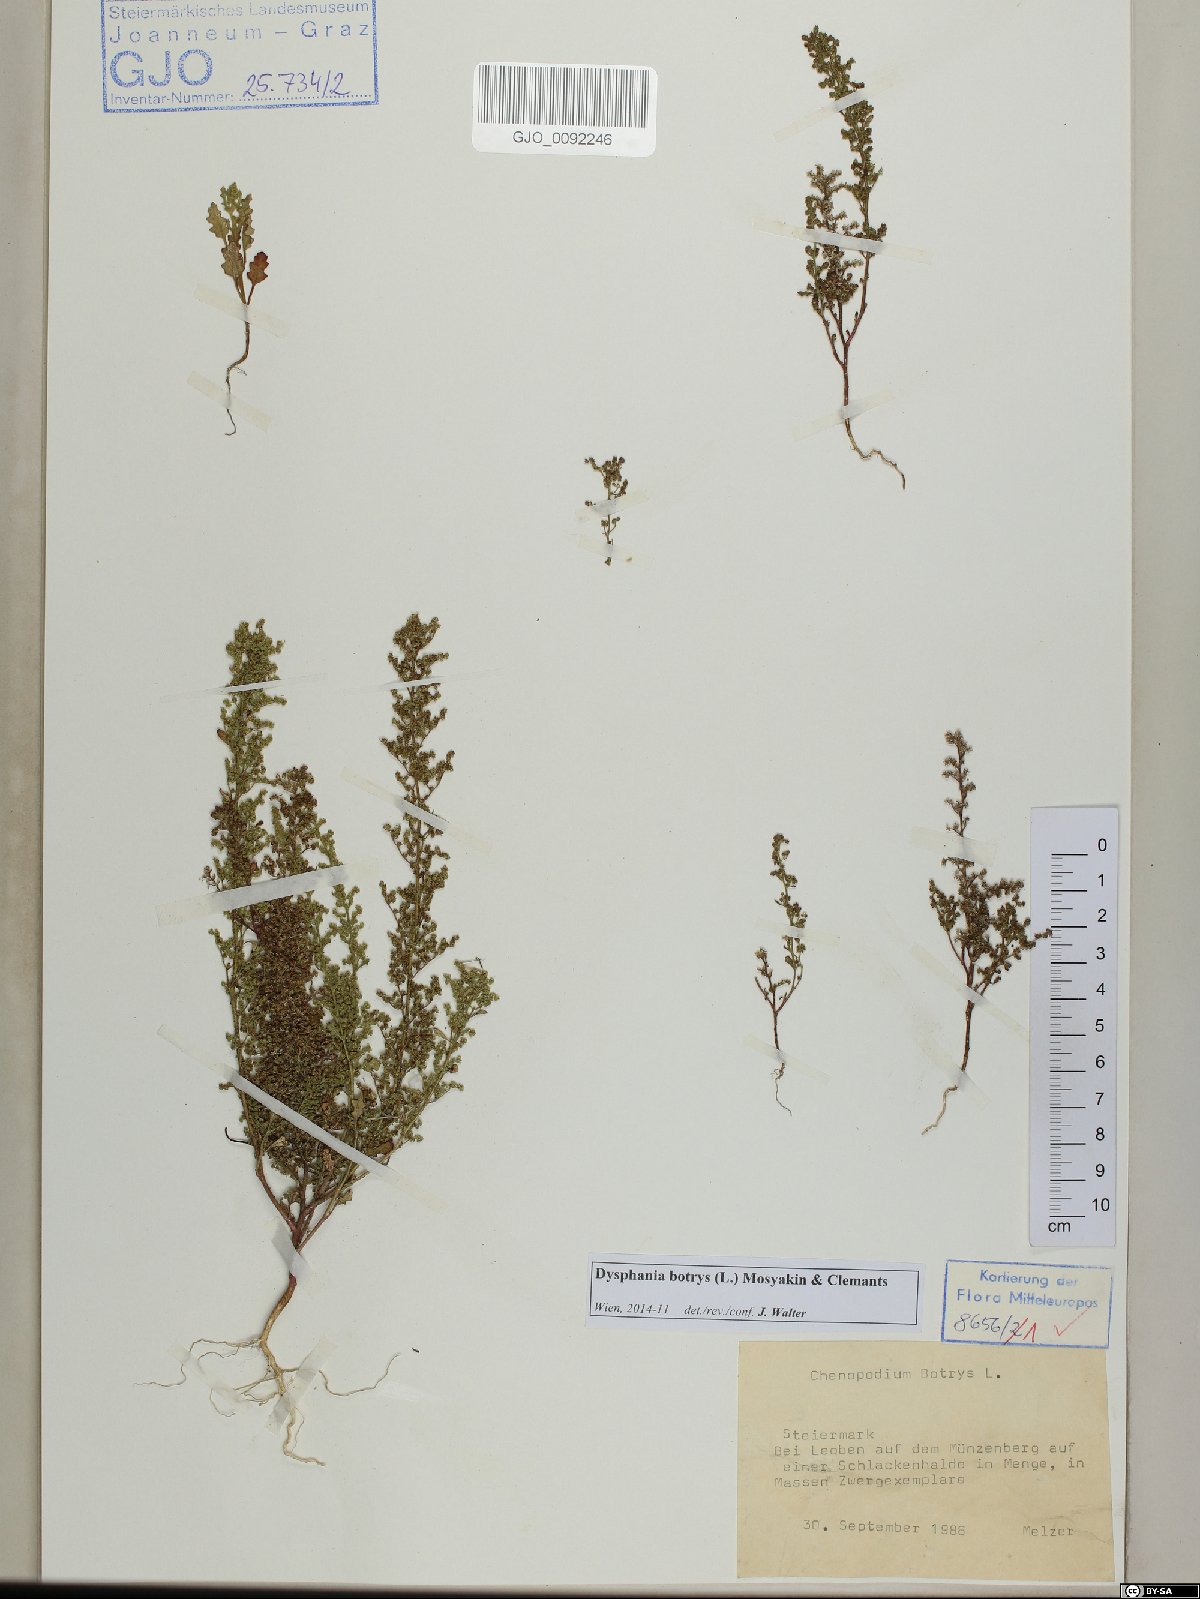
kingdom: Plantae
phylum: Tracheophyta
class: Magnoliopsida
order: Caryophyllales
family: Amaranthaceae
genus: Dysphania
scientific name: Dysphania botrys
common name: Feather-geranium
